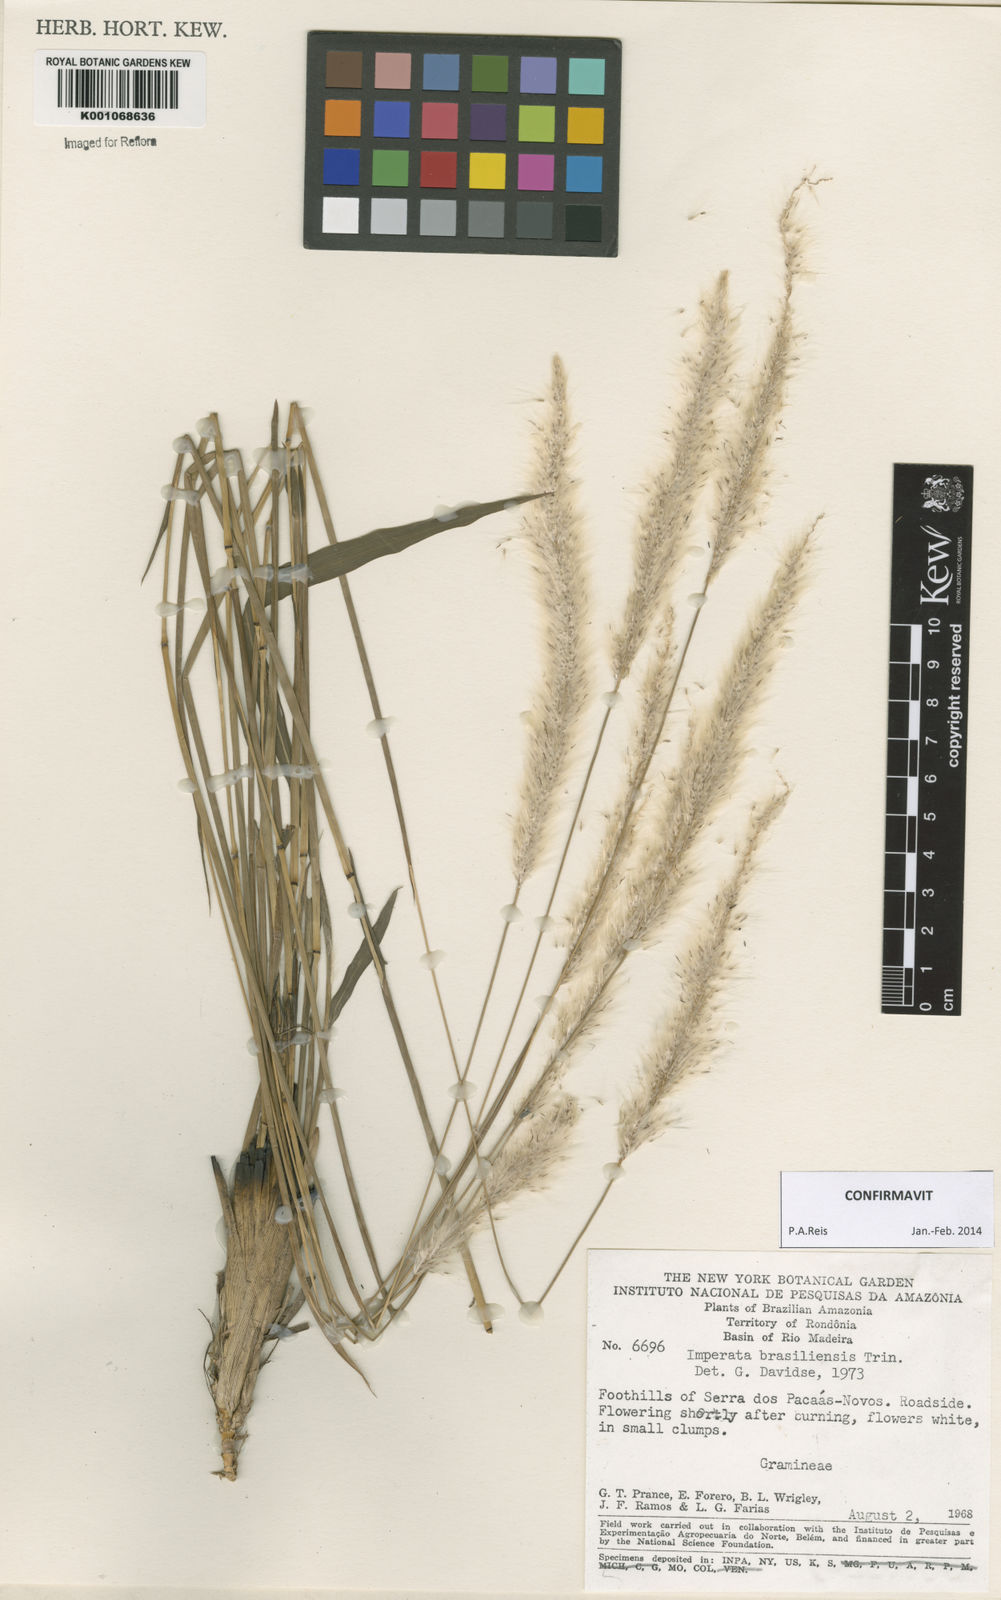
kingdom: Plantae
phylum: Tracheophyta
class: Liliopsida
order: Poales
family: Poaceae
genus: Imperata
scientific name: Imperata brasiliensis
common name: Brazilian satintail
